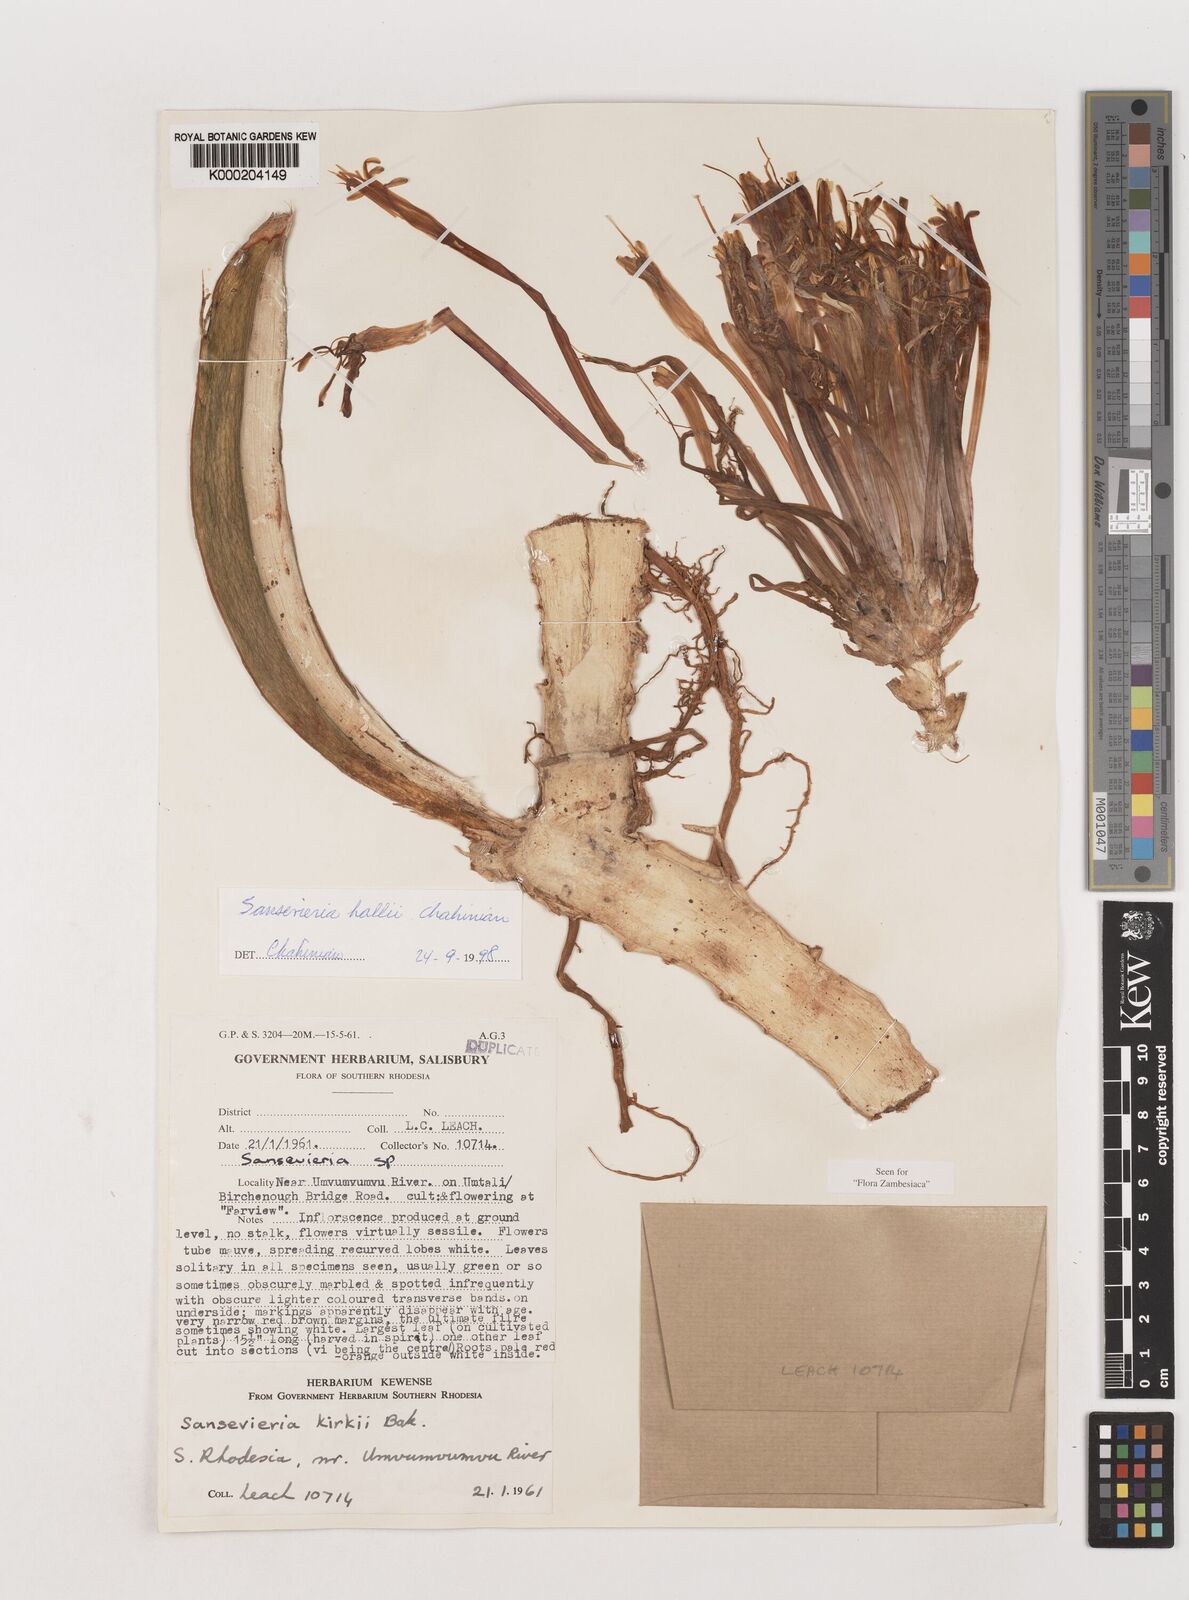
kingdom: Plantae
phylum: Tracheophyta
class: Liliopsida
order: Asparagales
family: Asparagaceae
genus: Dracaena
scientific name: Dracaena hallii
